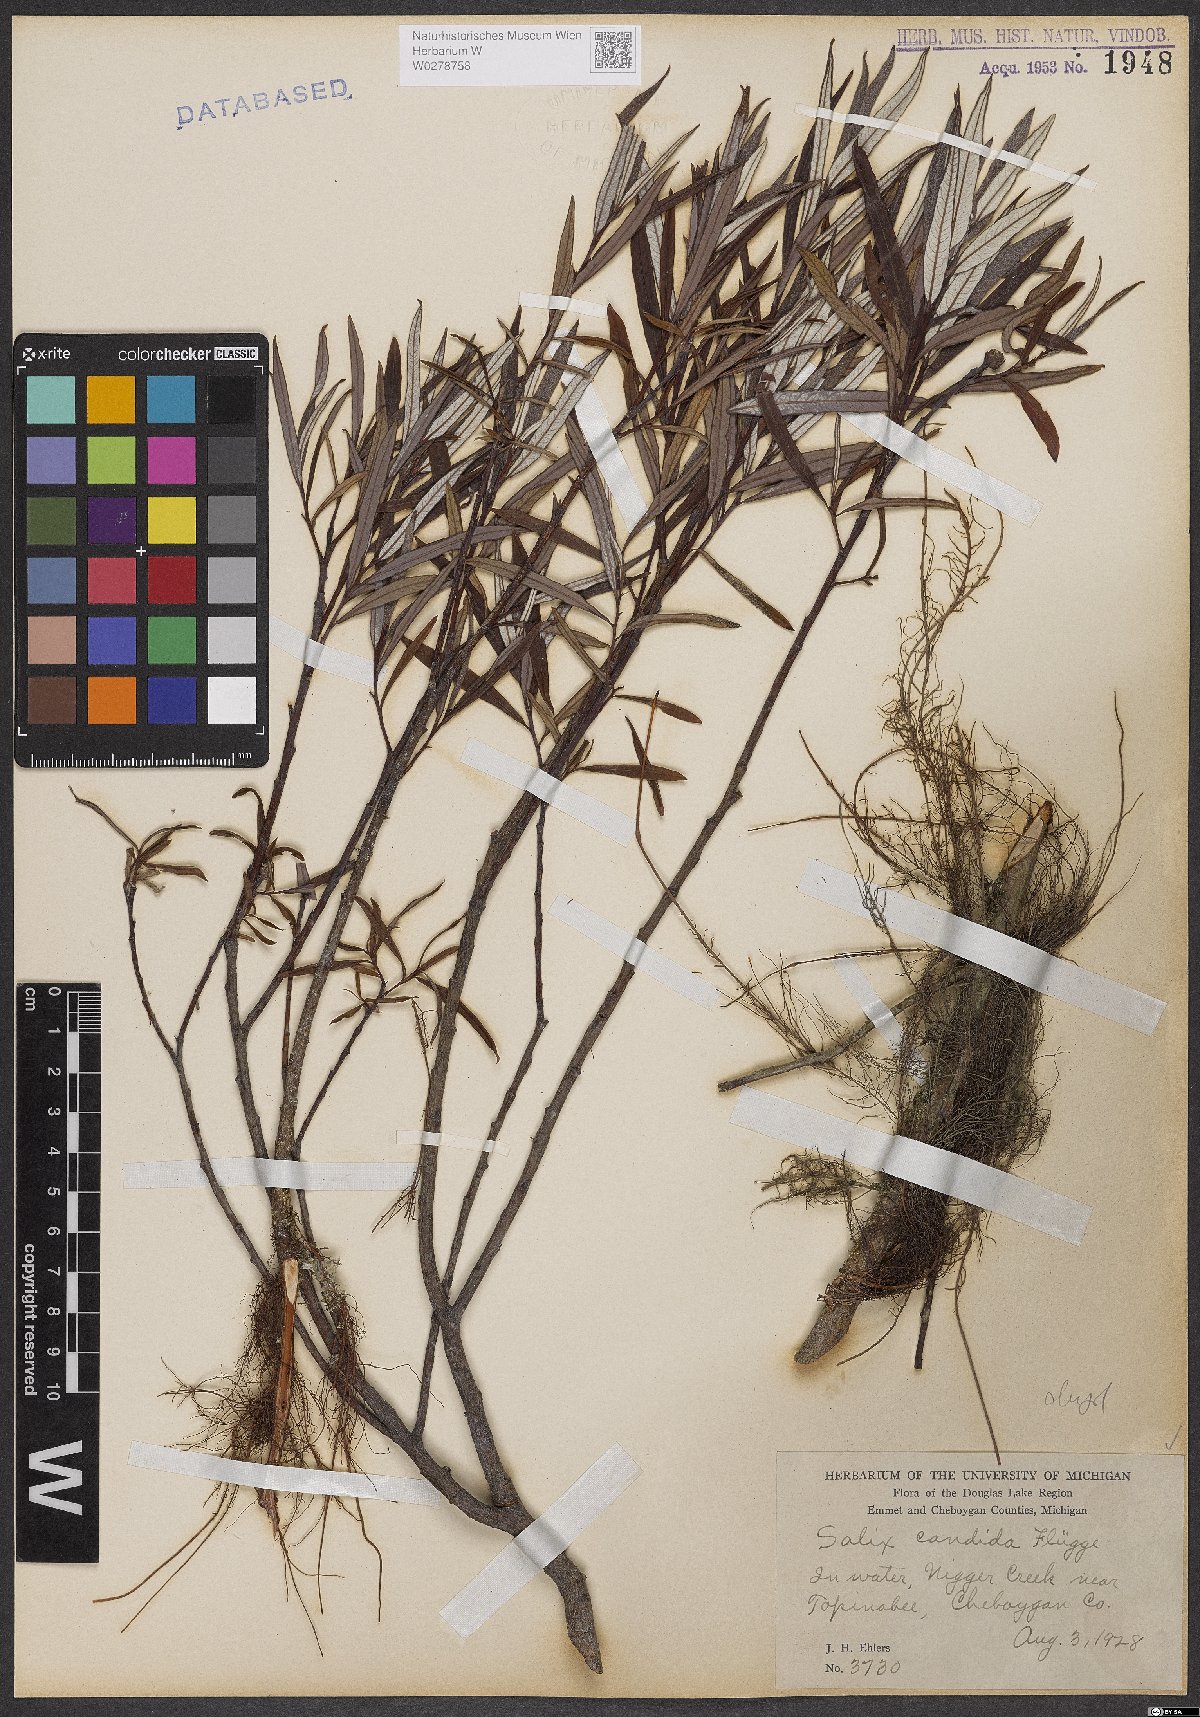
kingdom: Plantae
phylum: Tracheophyta
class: Magnoliopsida
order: Malpighiales
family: Salicaceae
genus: Salix
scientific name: Salix candida
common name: Hoary willow
